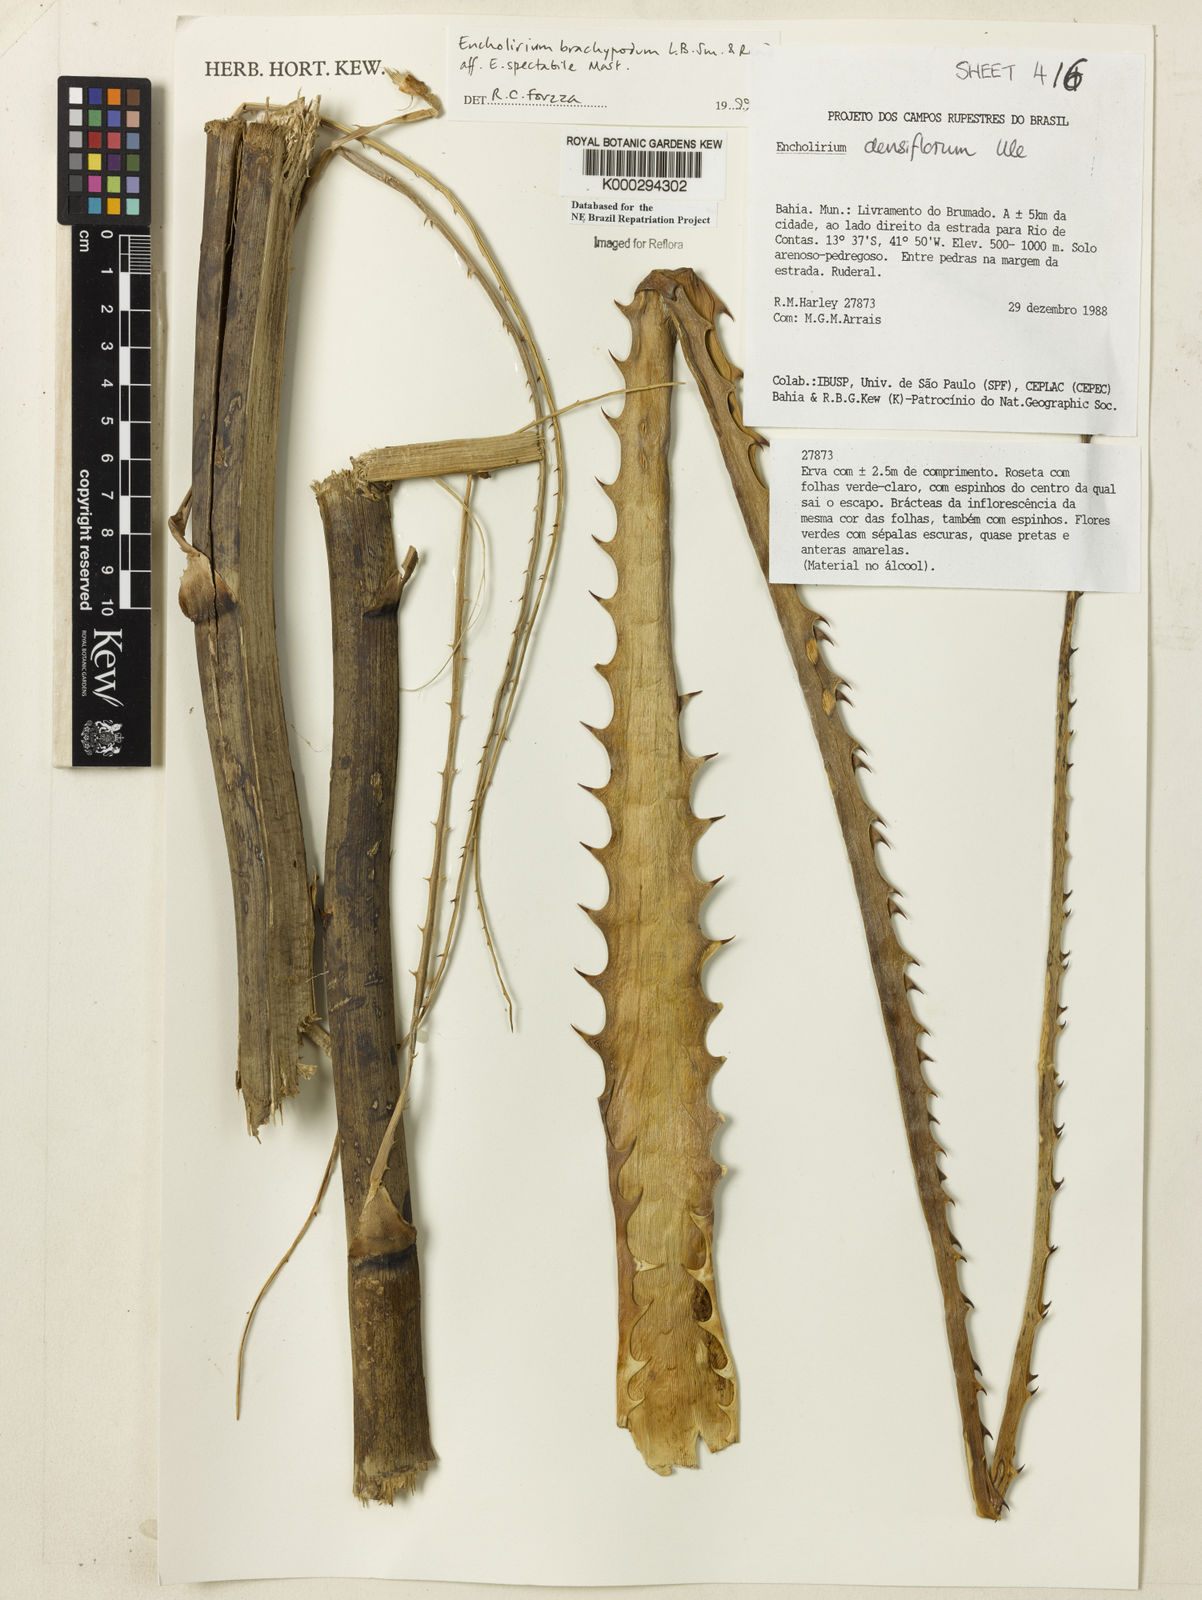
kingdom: Plantae
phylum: Tracheophyta
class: Liliopsida
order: Poales
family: Bromeliaceae
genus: Encholirium
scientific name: Encholirium brachypodum
